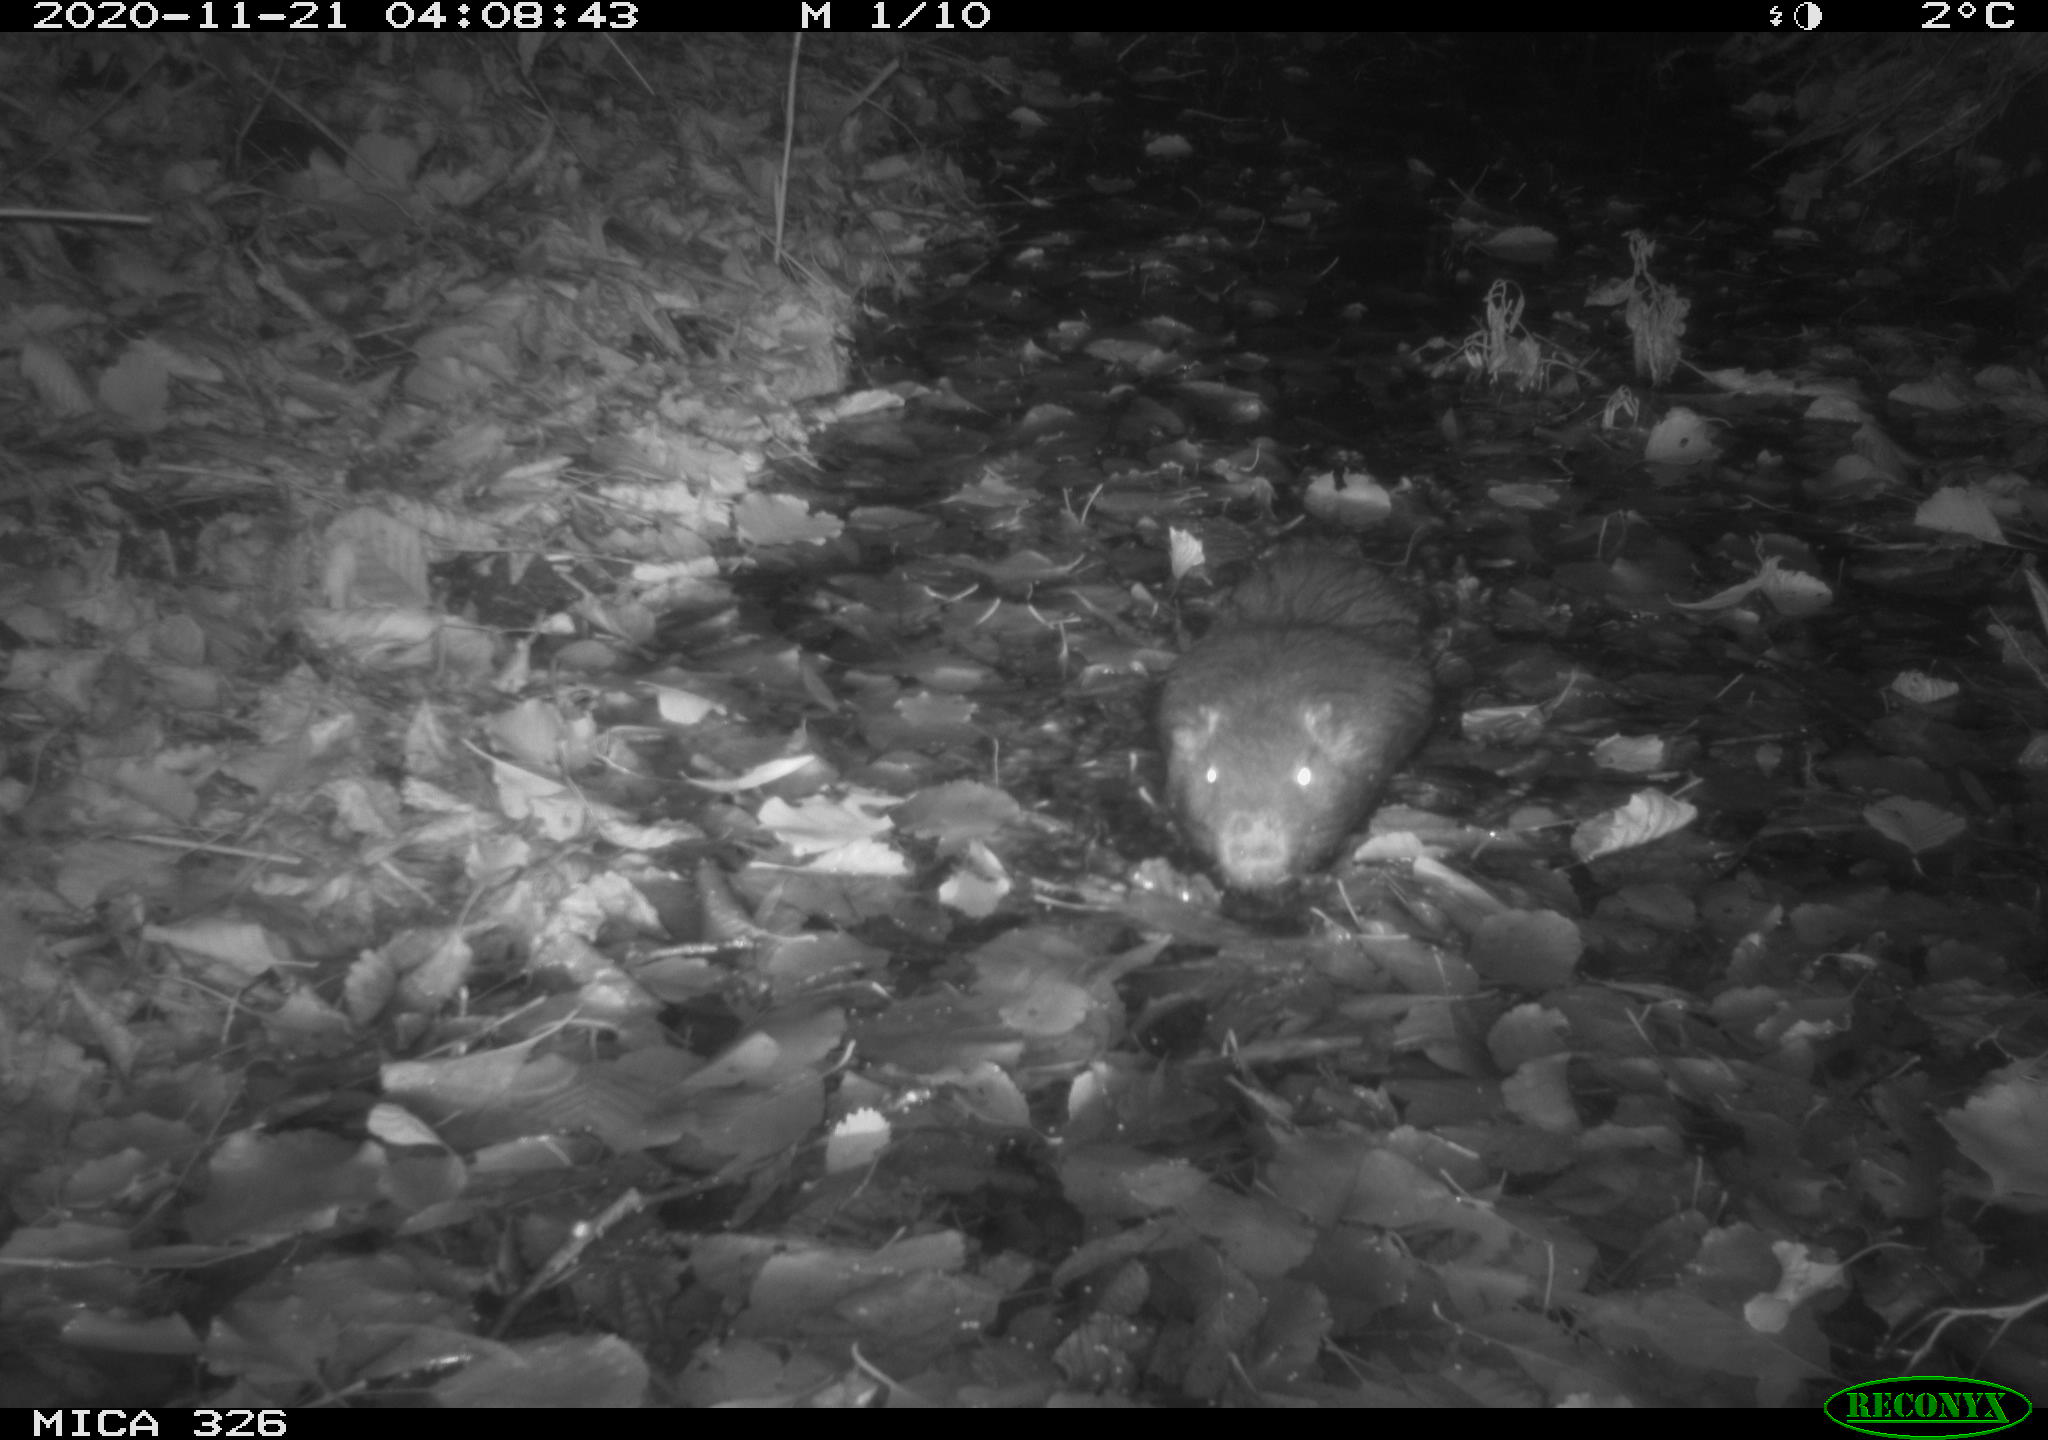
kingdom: Animalia
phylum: Chordata
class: Mammalia
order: Rodentia
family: Myocastoridae
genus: Myocastor
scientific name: Myocastor coypus
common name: Coypu
